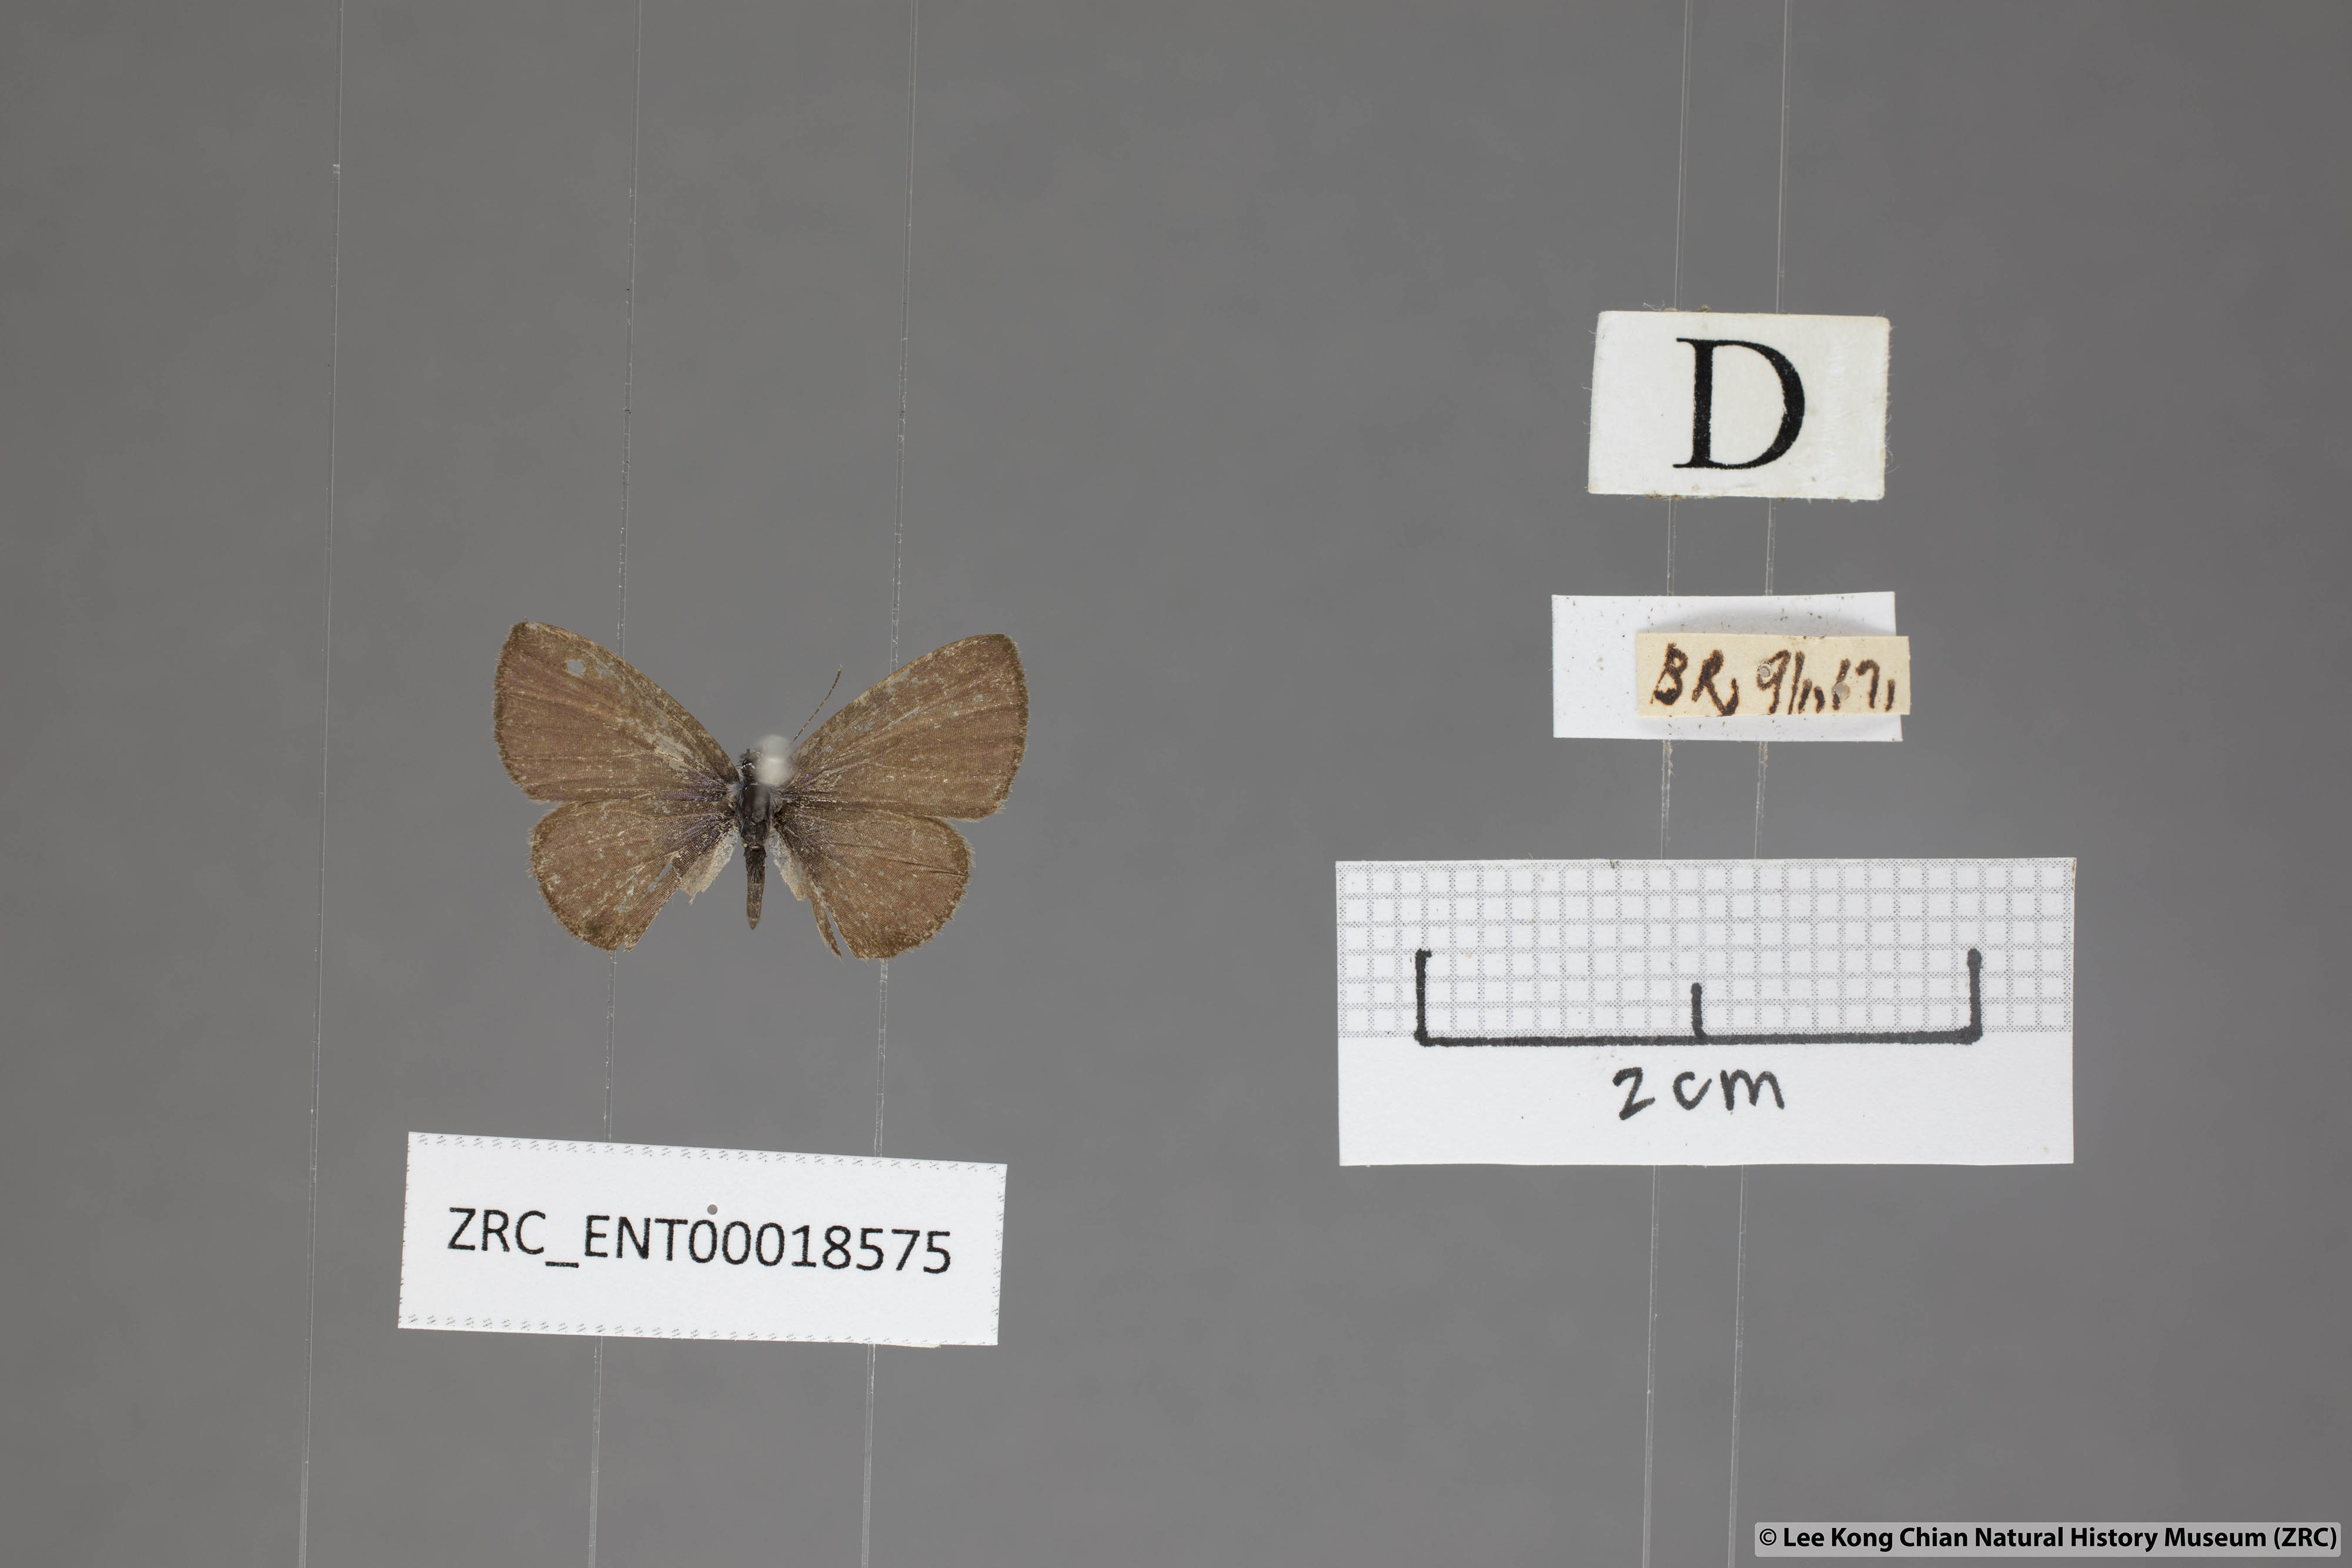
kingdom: Animalia
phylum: Arthropoda
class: Insecta
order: Lepidoptera
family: Lycaenidae
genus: Prosotas
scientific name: Prosotas dubiosa
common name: Tailless lineblue
